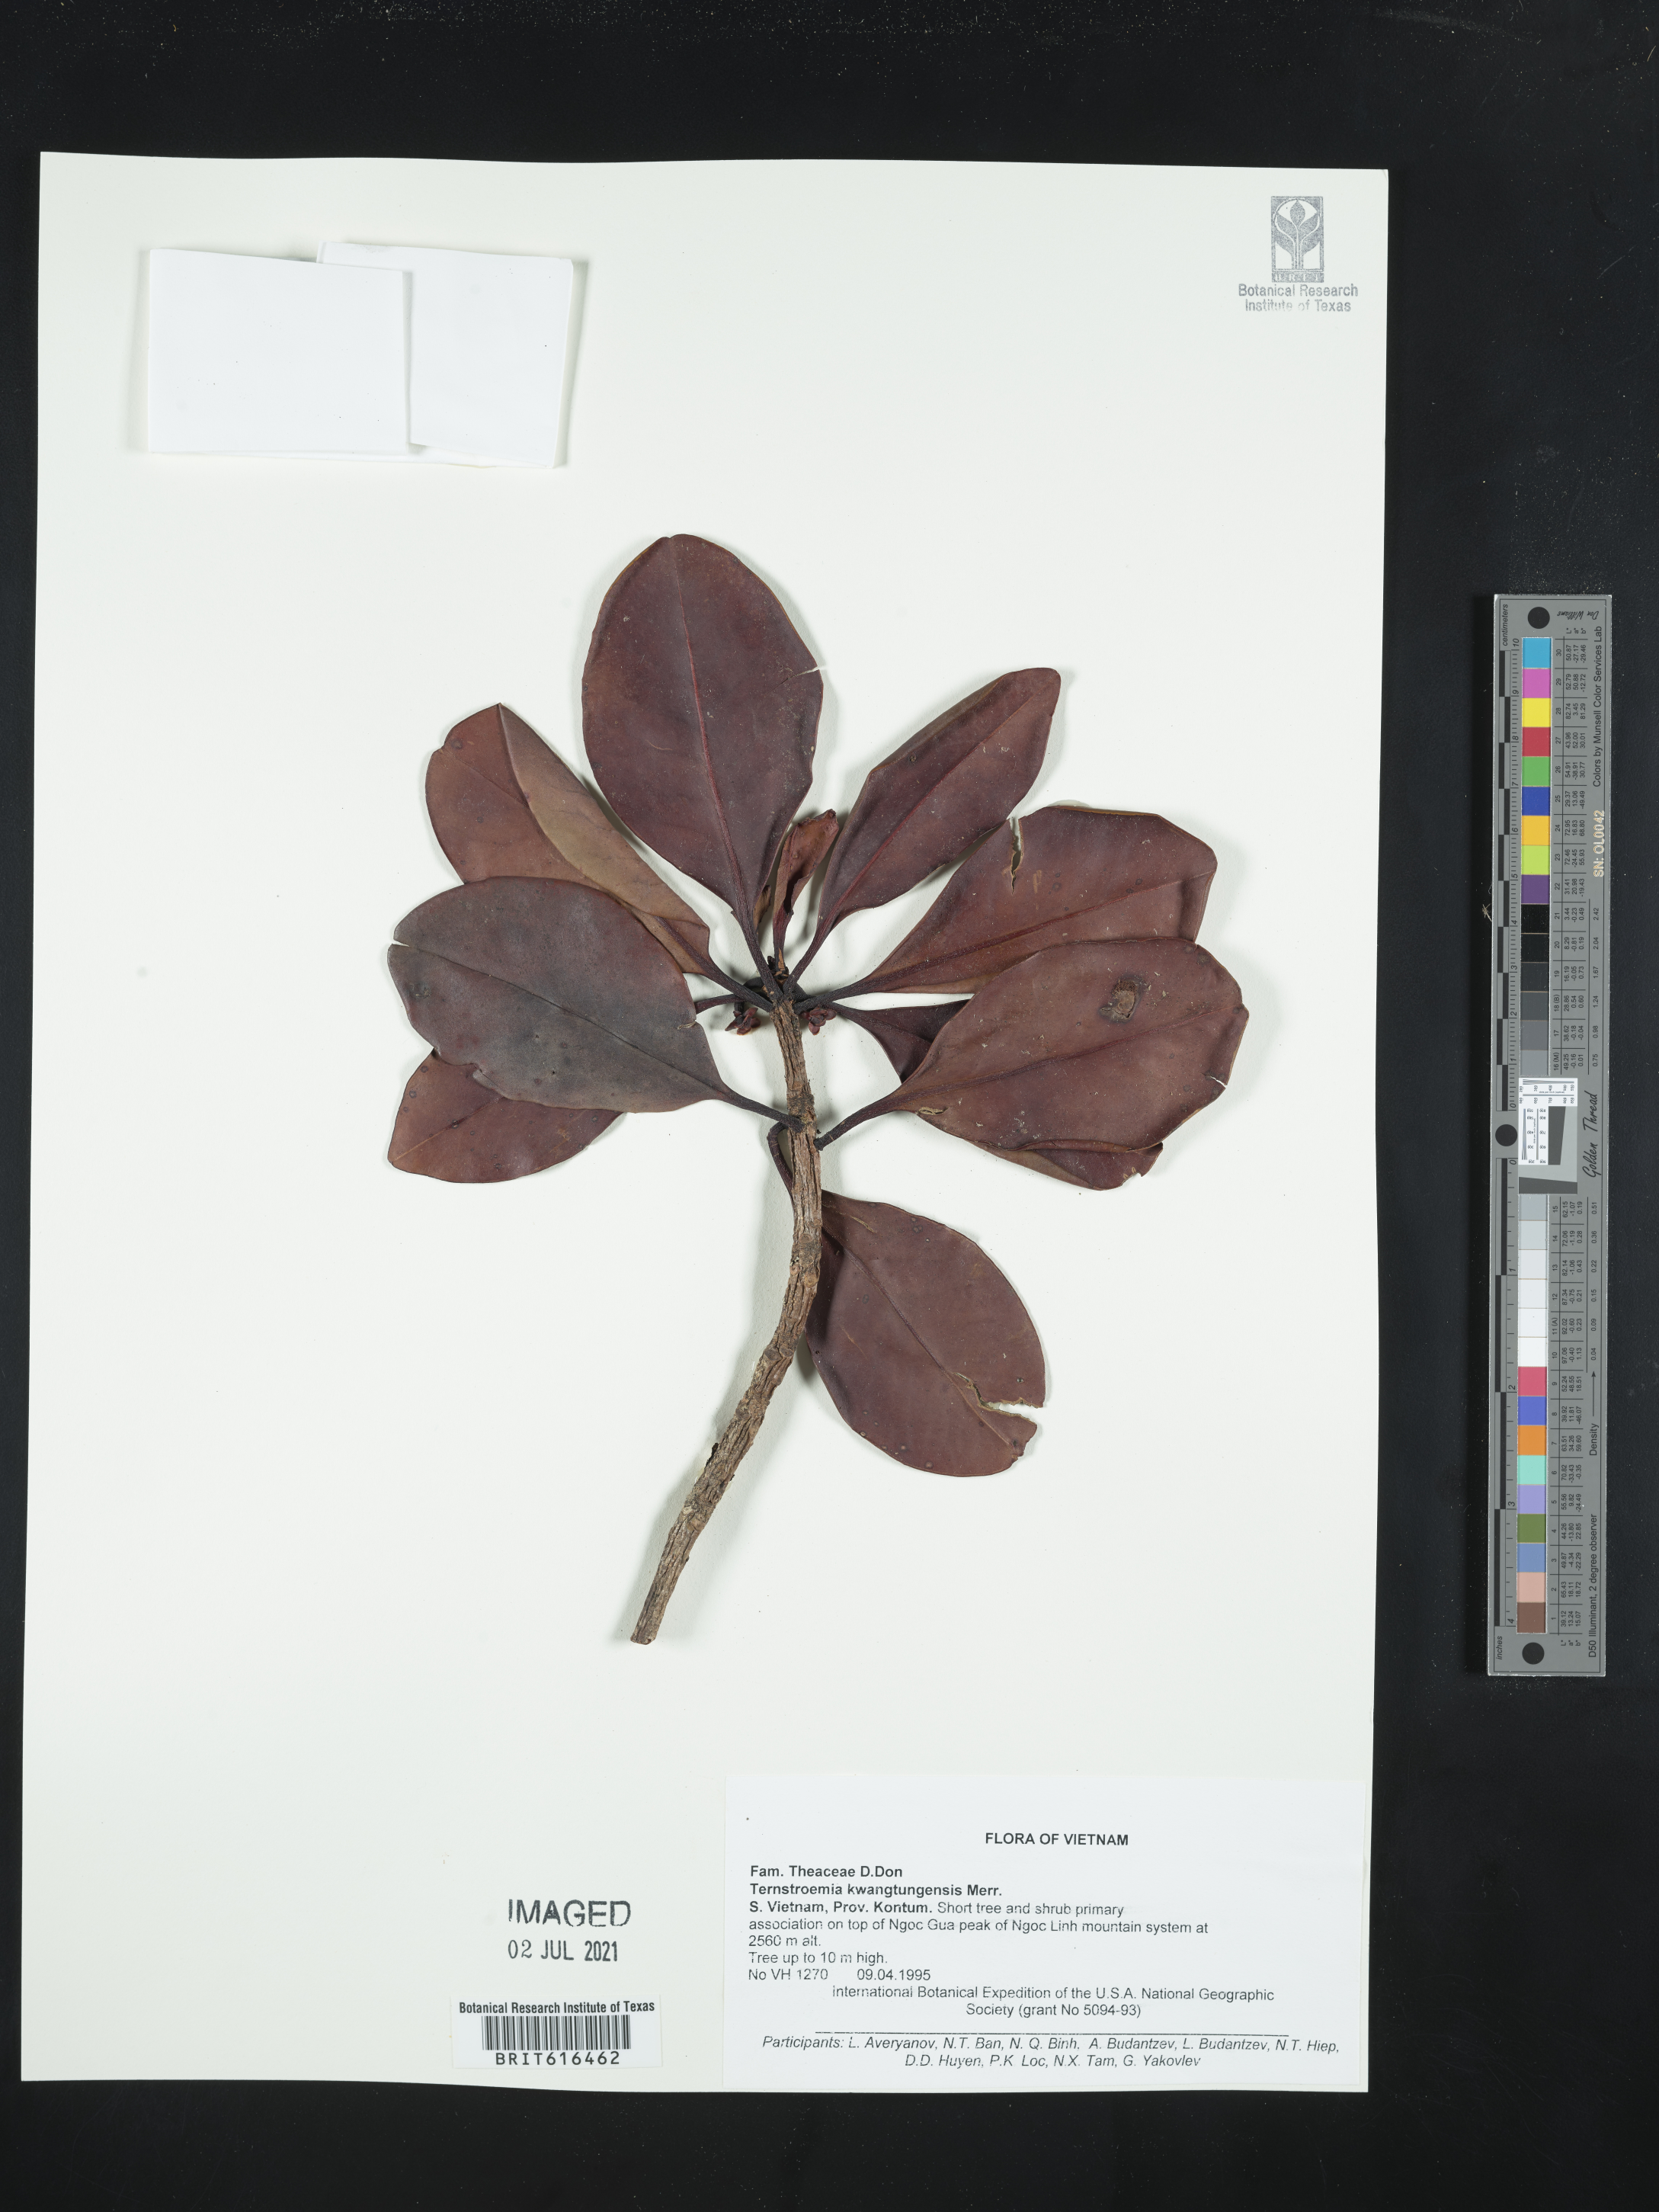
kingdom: Plantae
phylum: Tracheophyta
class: Magnoliopsida
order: Ericales
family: Pentaphylacaceae
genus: Ternstroemia
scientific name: Ternstroemia kwangtungensis
